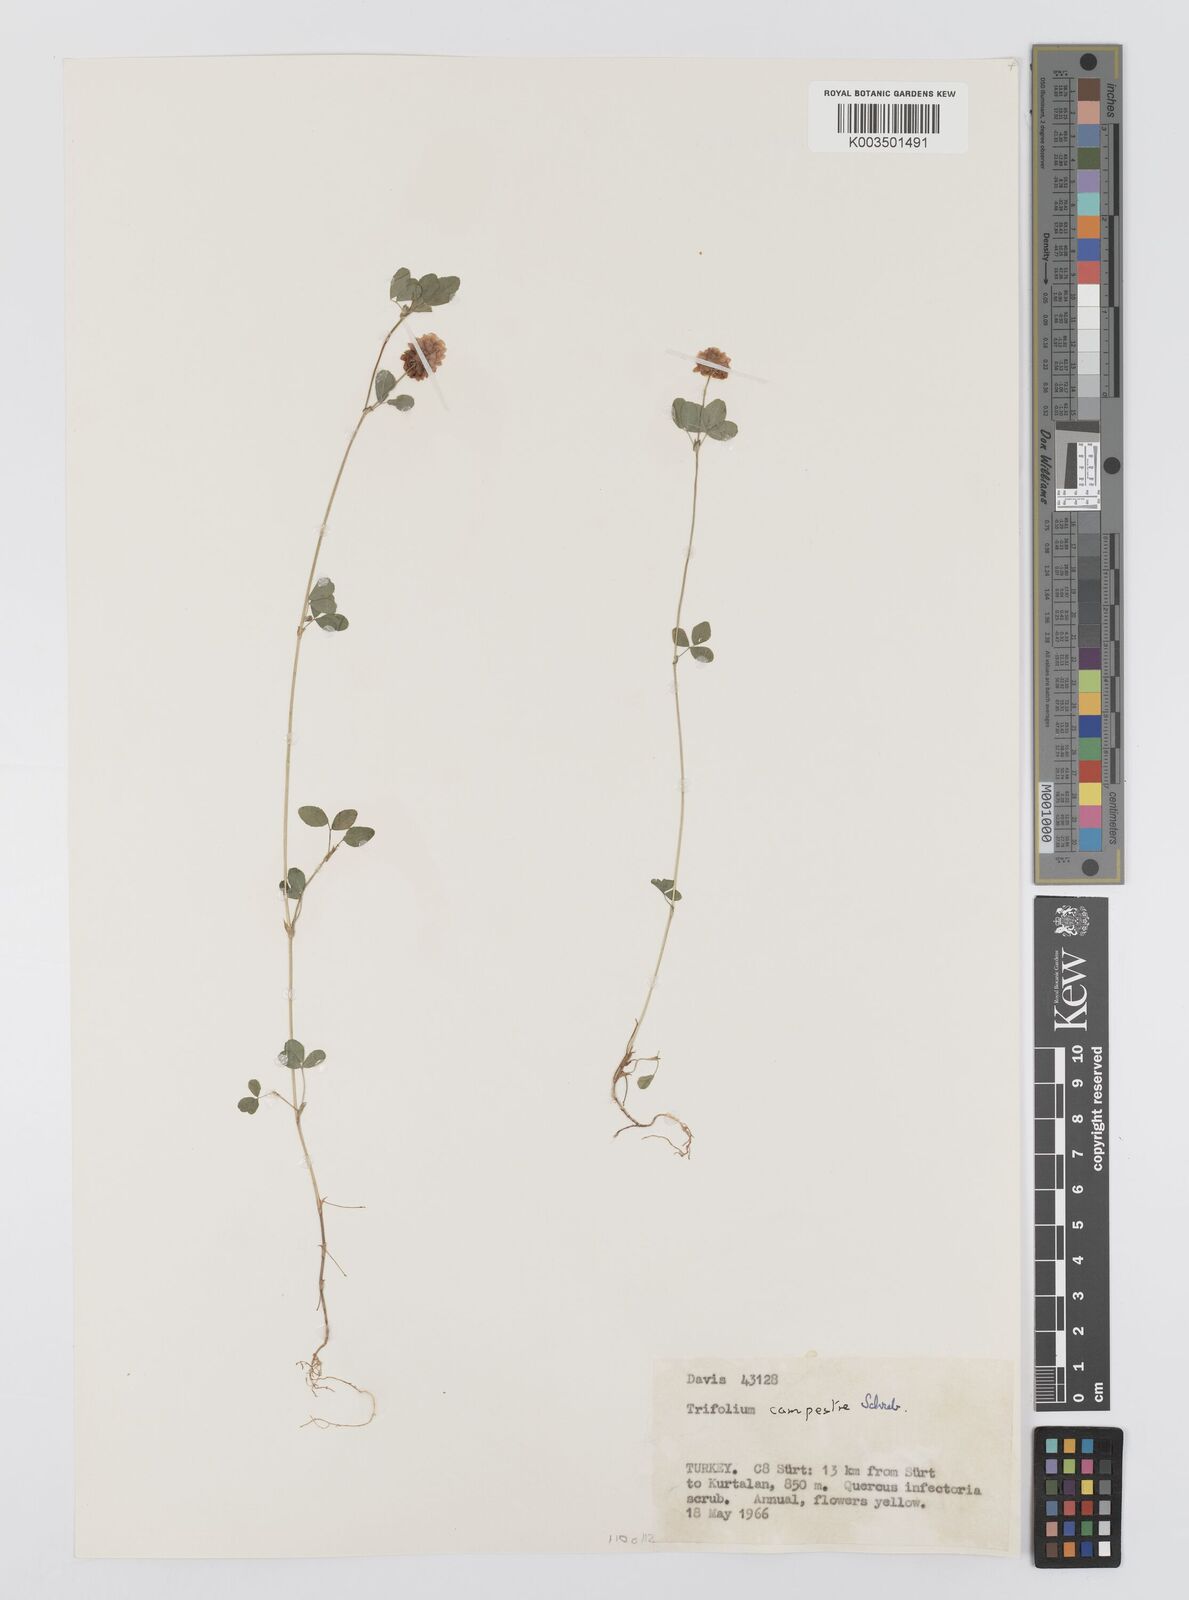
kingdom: Plantae
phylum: Tracheophyta
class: Magnoliopsida
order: Fabales
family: Fabaceae
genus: Trifolium
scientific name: Trifolium campestre
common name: Field clover
